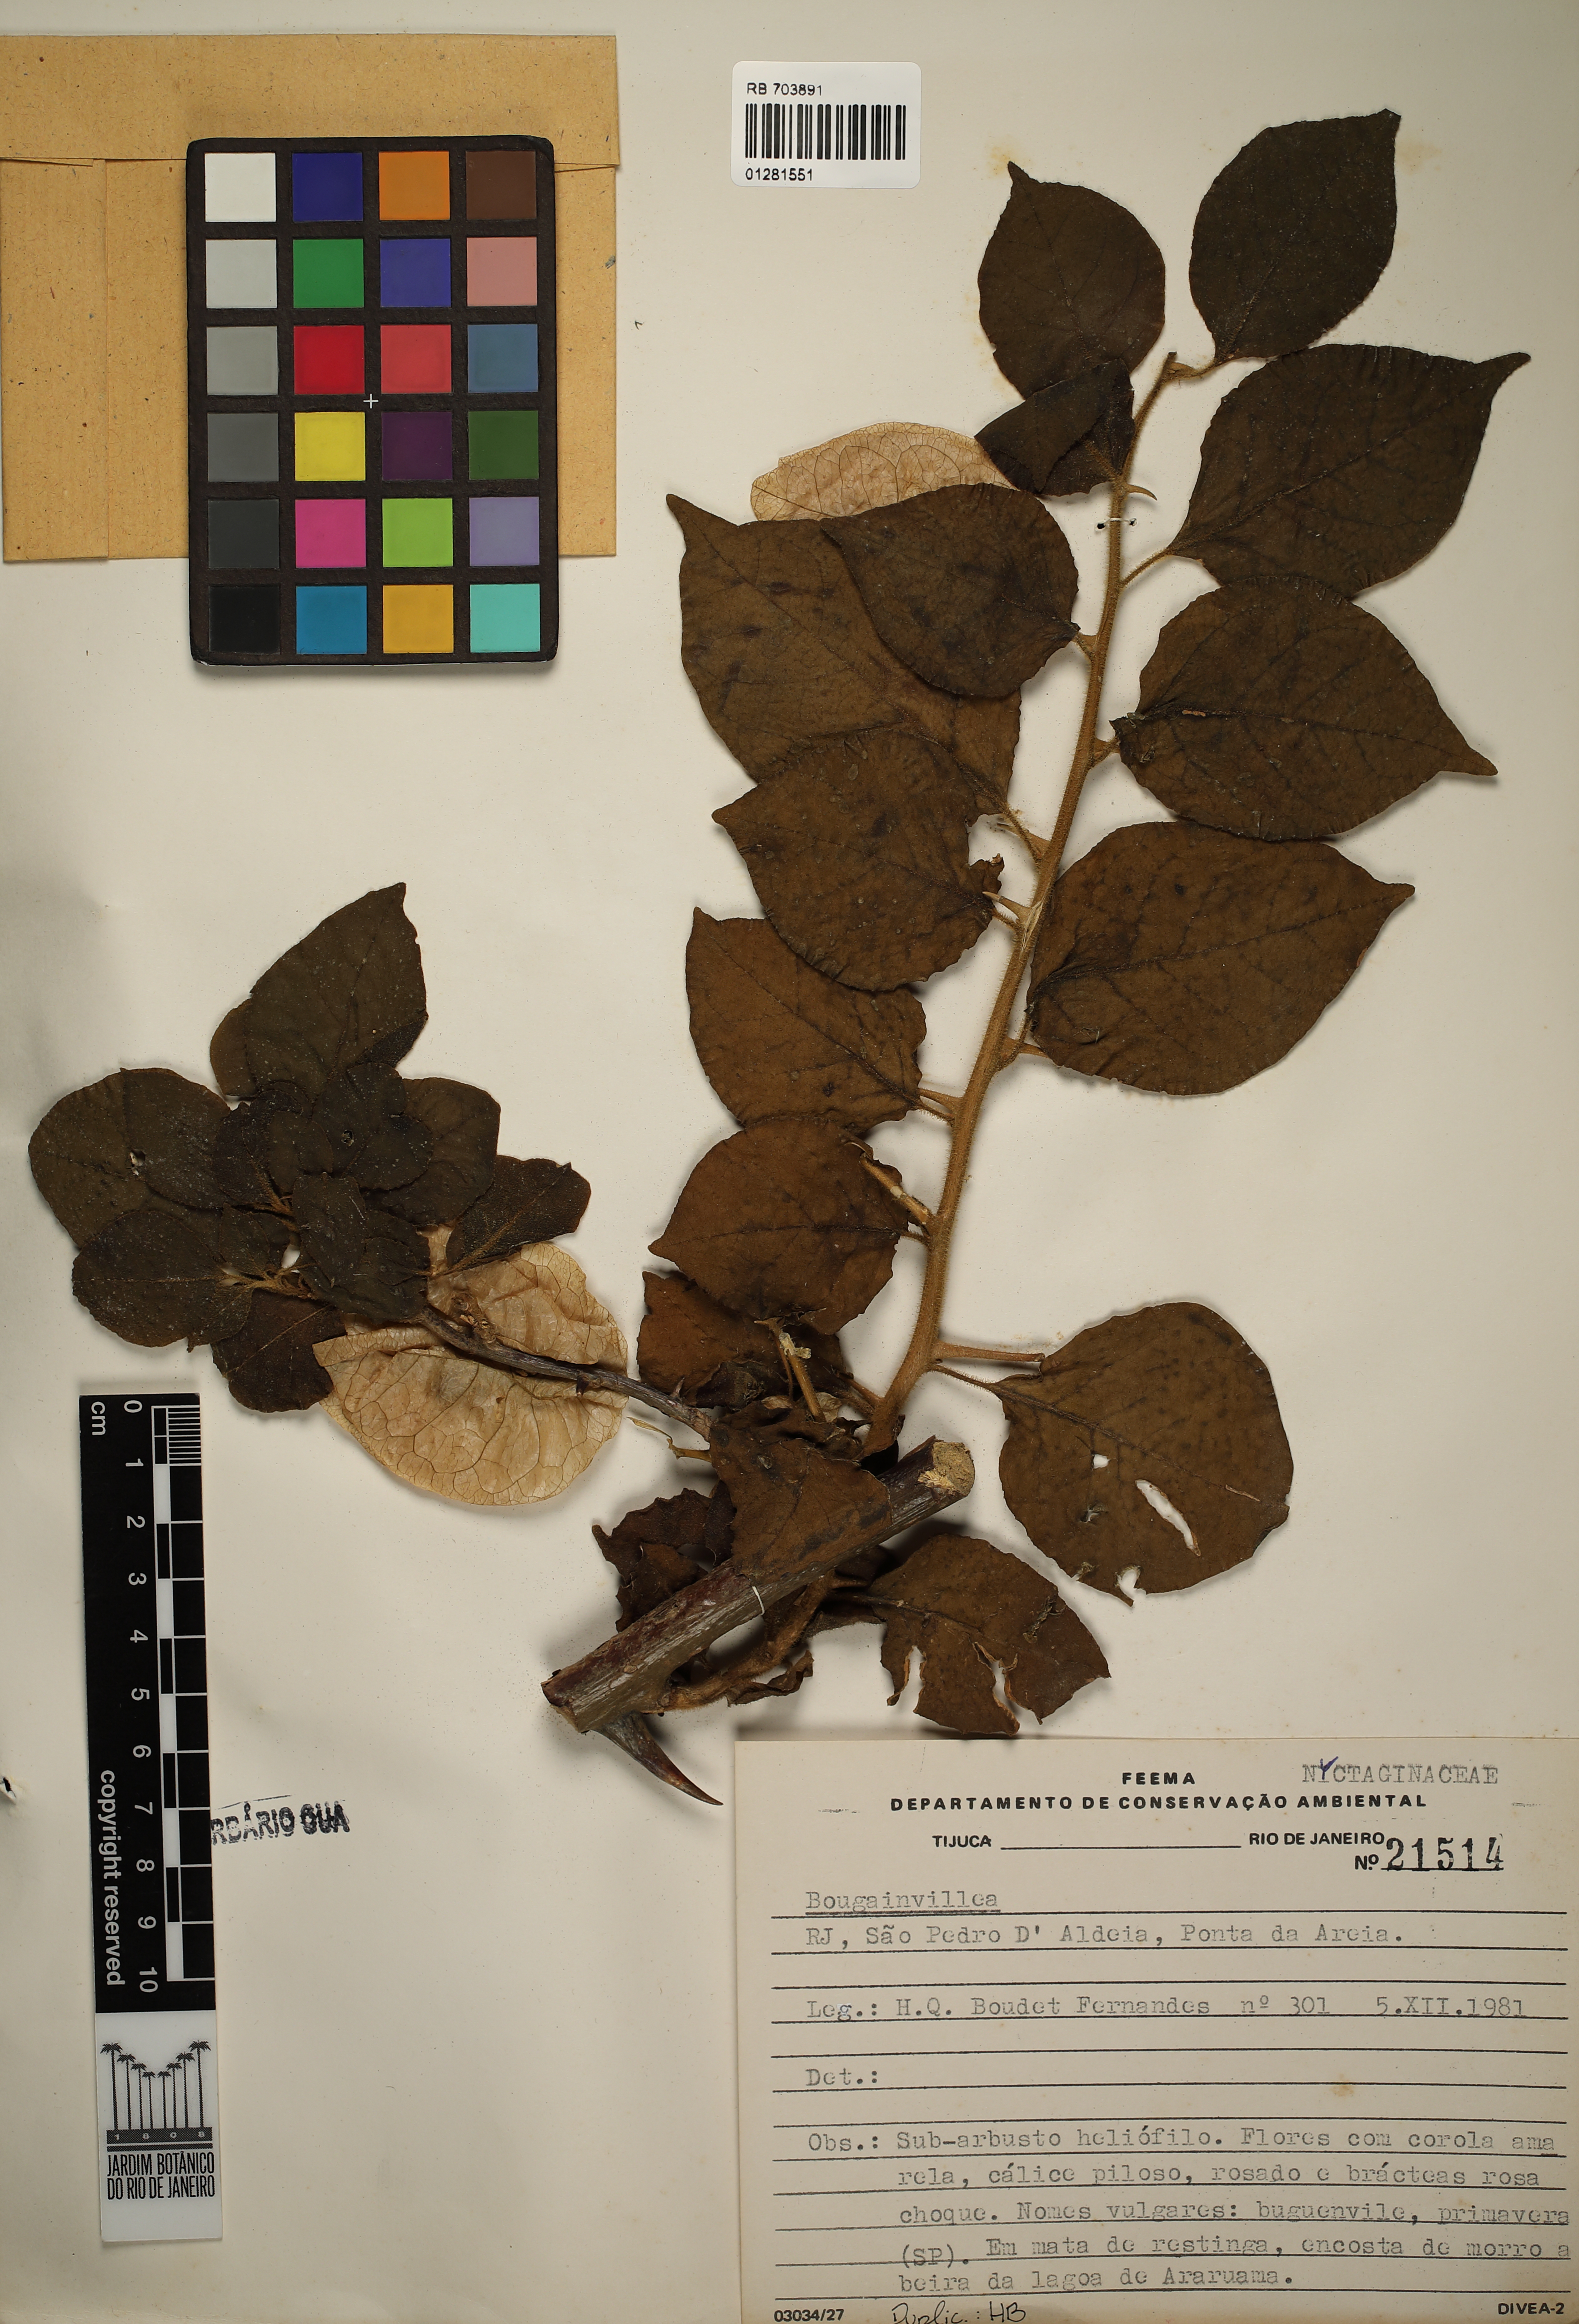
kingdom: Plantae
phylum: Tracheophyta
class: Magnoliopsida
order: Caryophyllales
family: Nyctaginaceae
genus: Bougainvillea
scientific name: Bougainvillea
